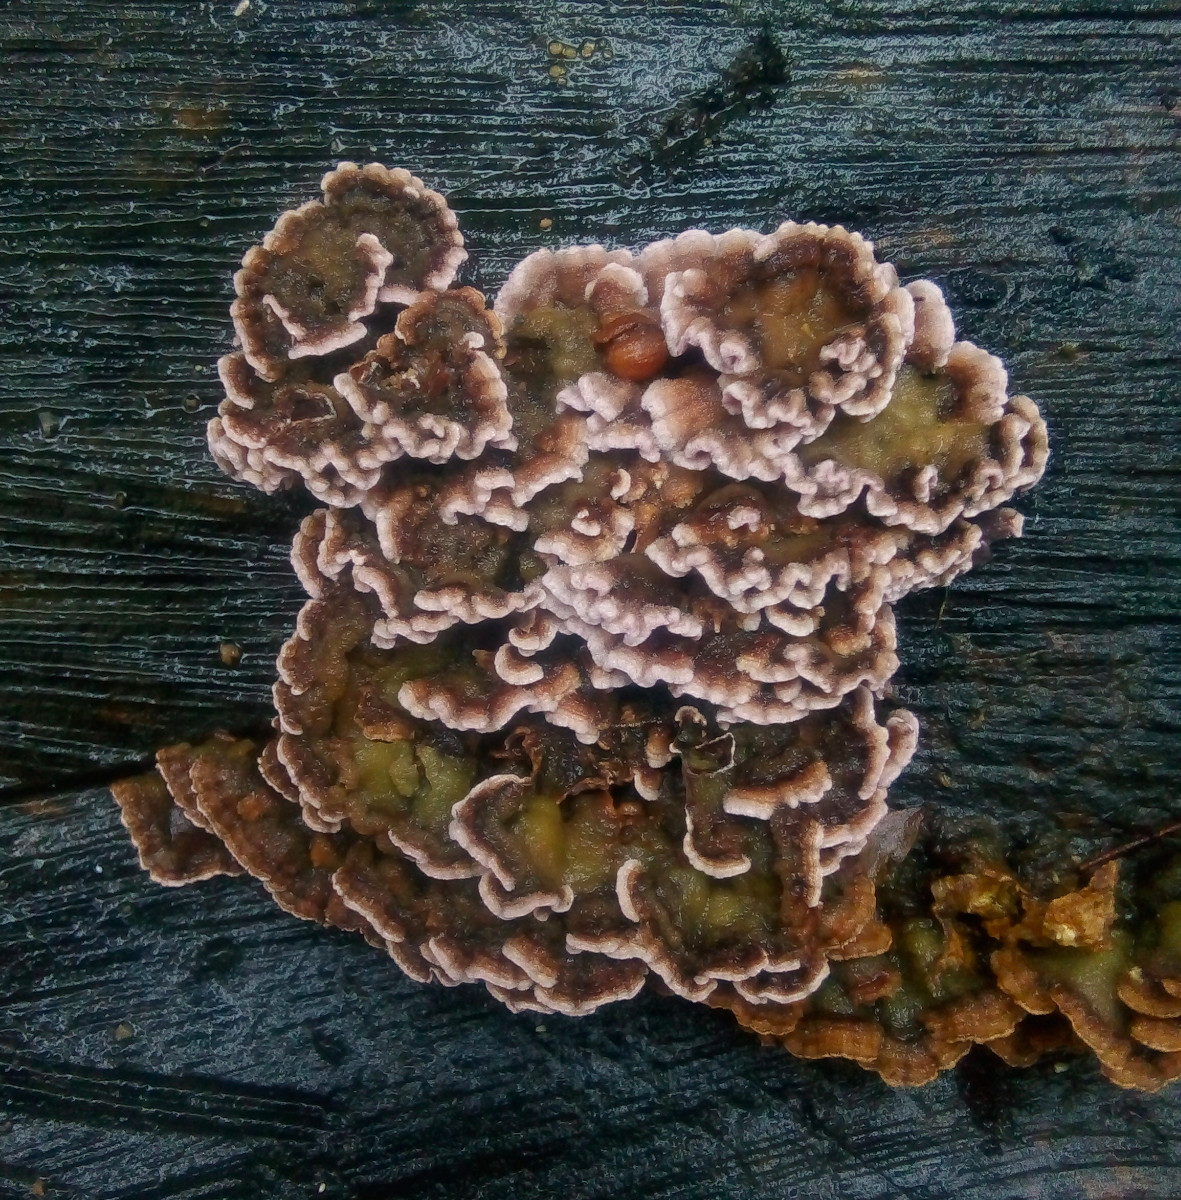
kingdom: Fungi
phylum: Basidiomycota
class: Agaricomycetes
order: Agaricales
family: Cyphellaceae
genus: Chondrostereum
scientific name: Chondrostereum purpureum
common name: purpurlædersvamp
